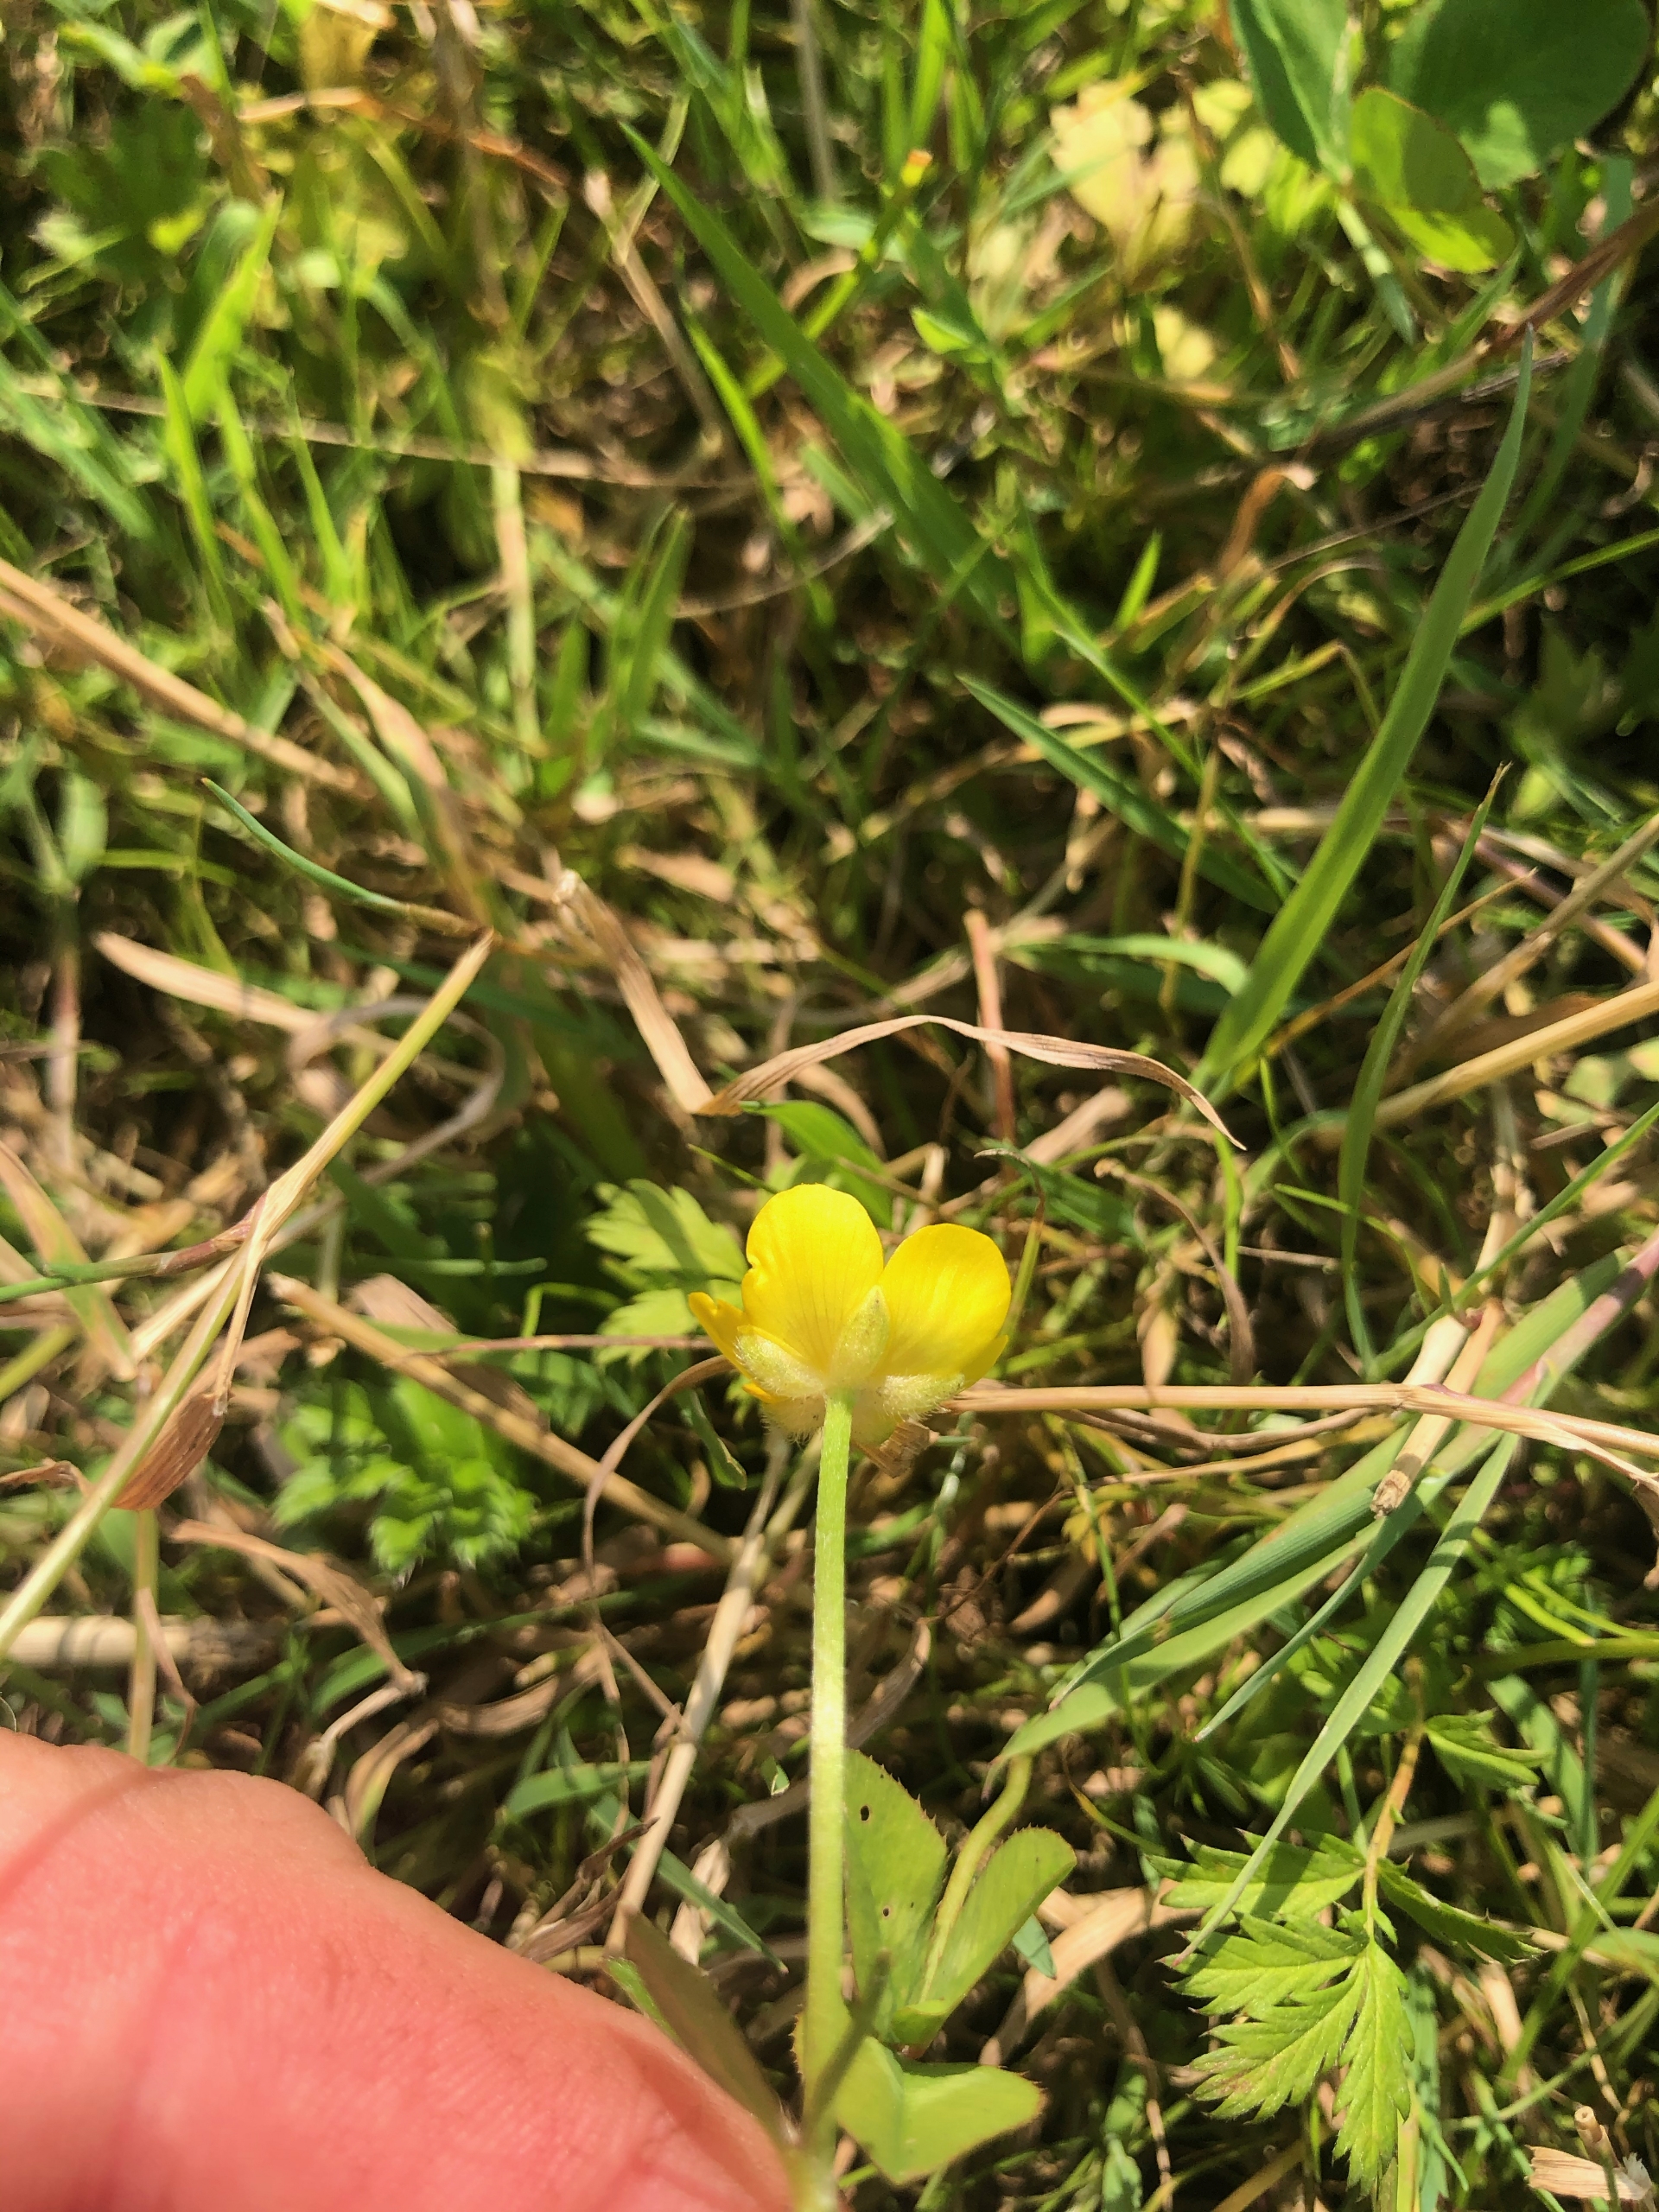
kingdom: Plantae
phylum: Tracheophyta
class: Magnoliopsida
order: Ranunculales
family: Ranunculaceae
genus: Ranunculus
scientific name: Ranunculus repens
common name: Lav ranunkel
